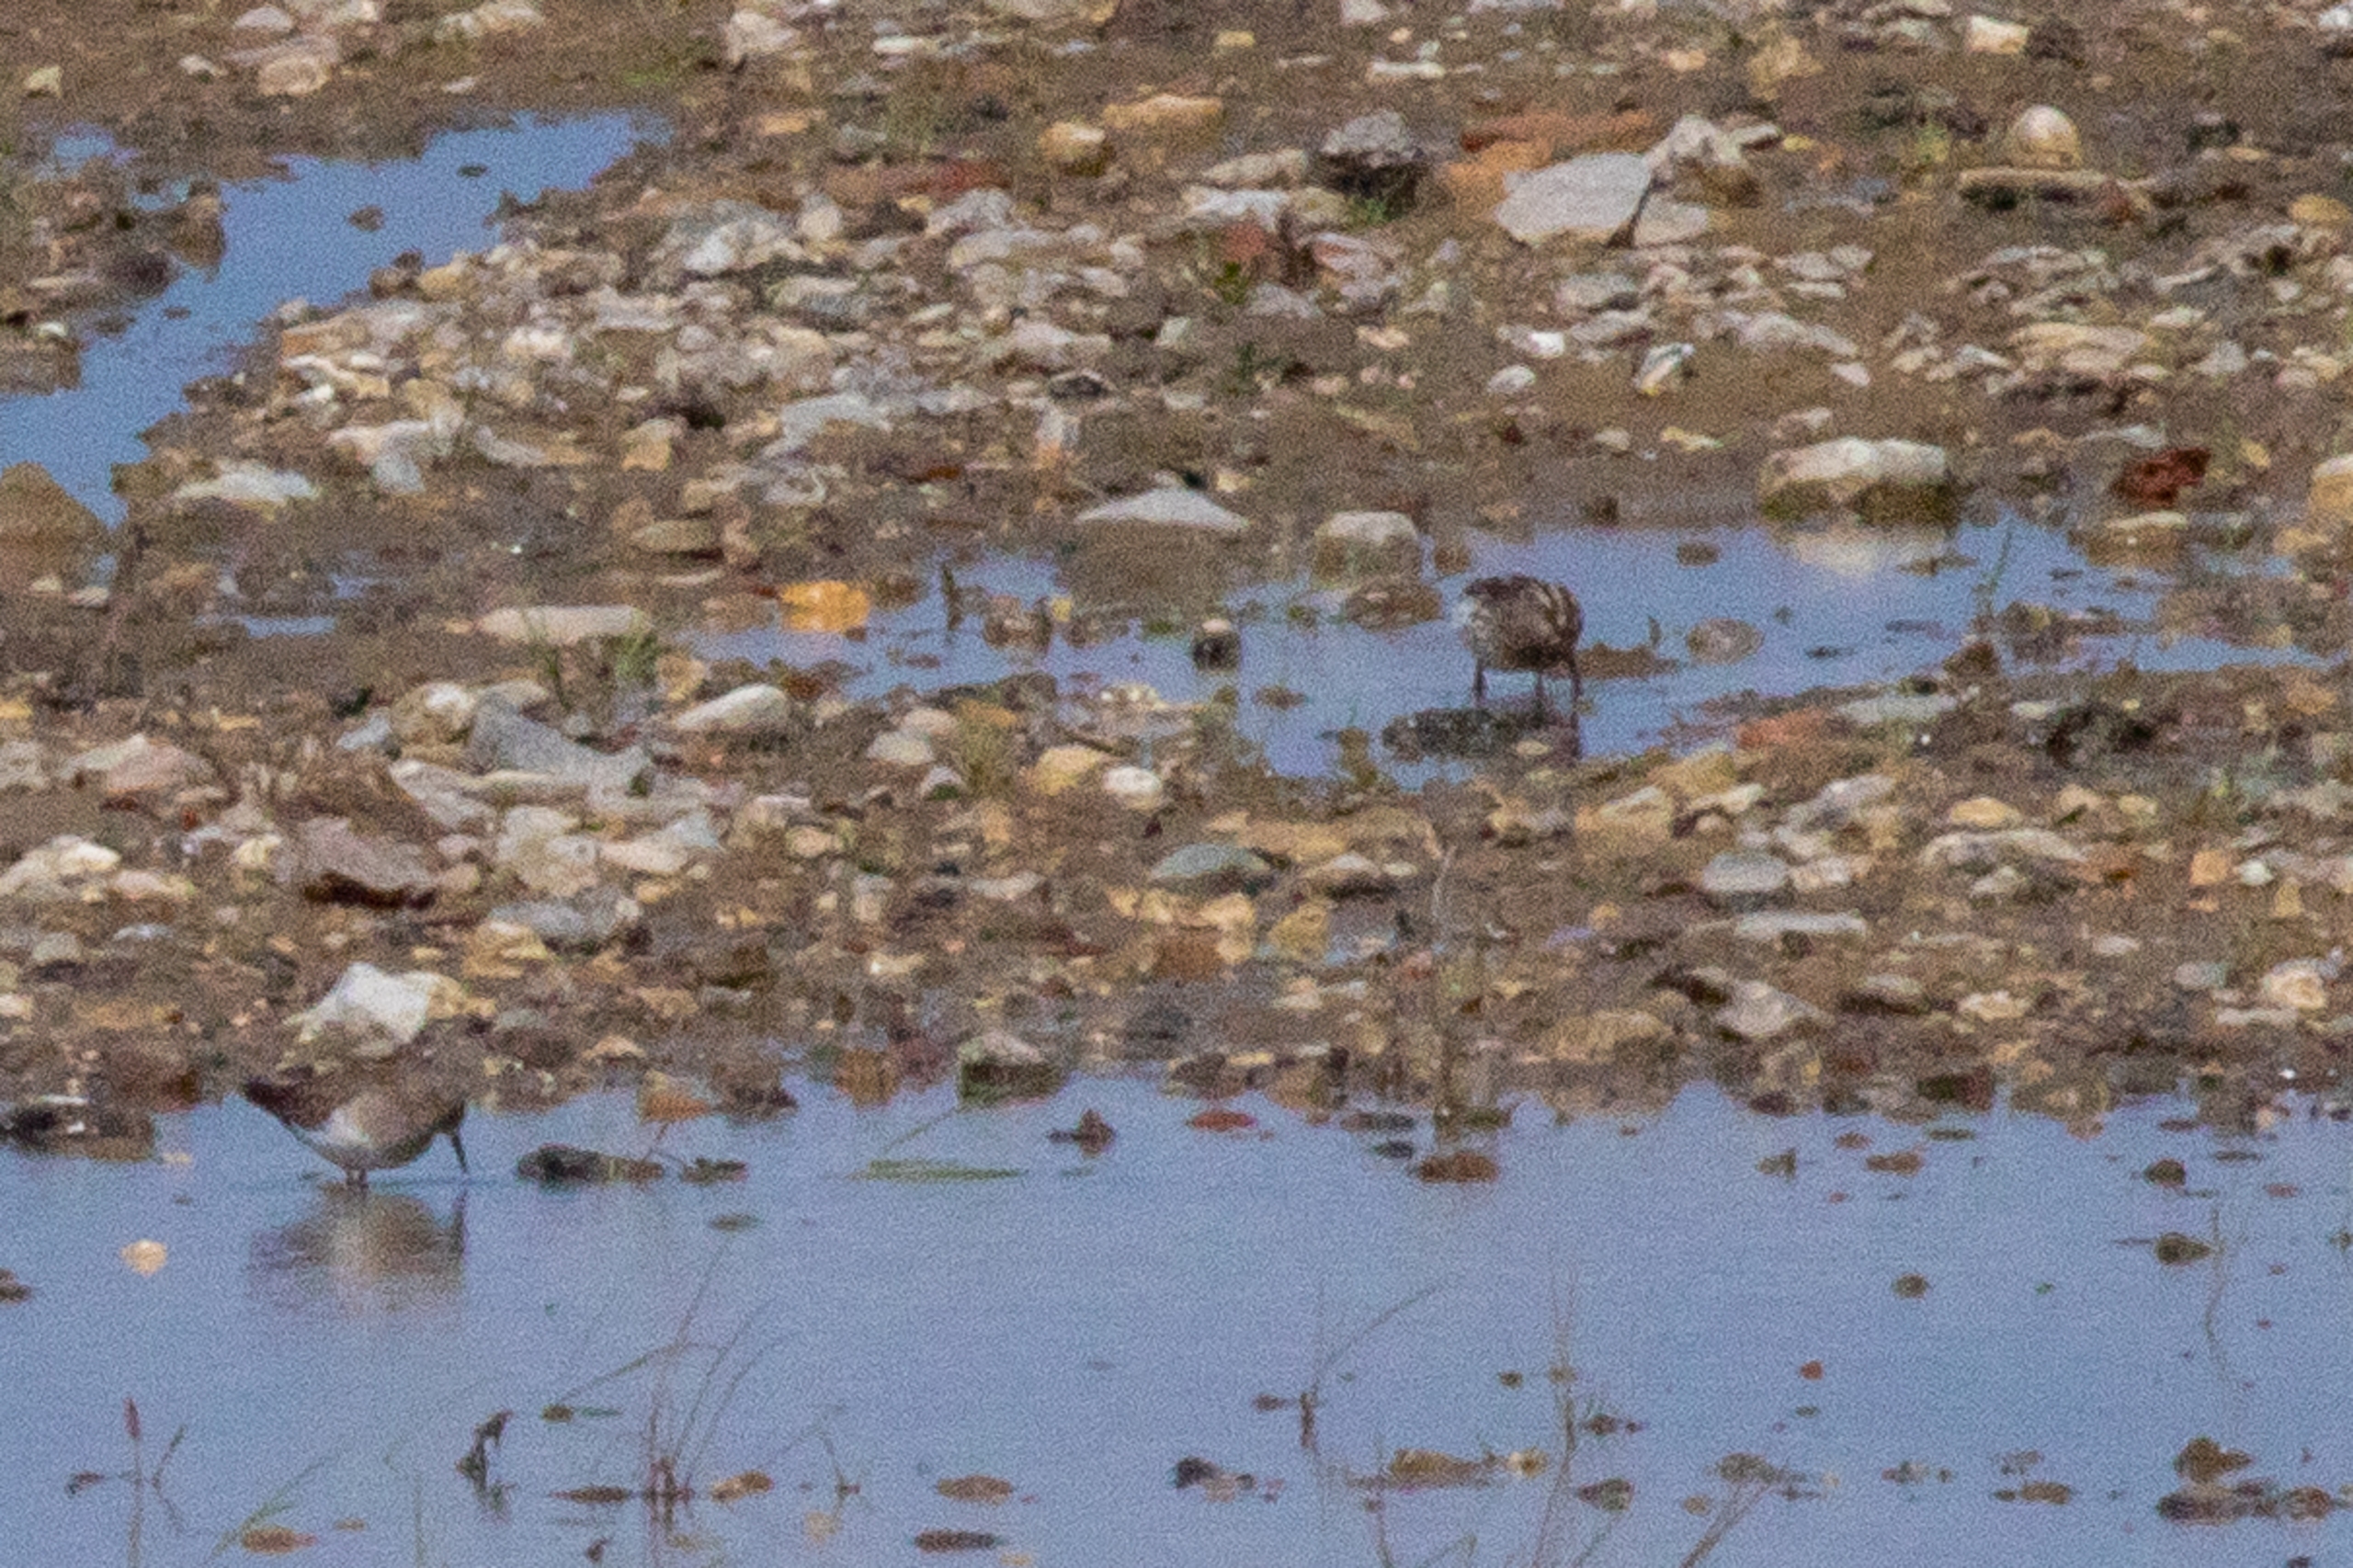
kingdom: Animalia
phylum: Chordata
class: Aves
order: Charadriiformes
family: Scolopacidae
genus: Calidris
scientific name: Calidris falcinellus
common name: Kærløber
